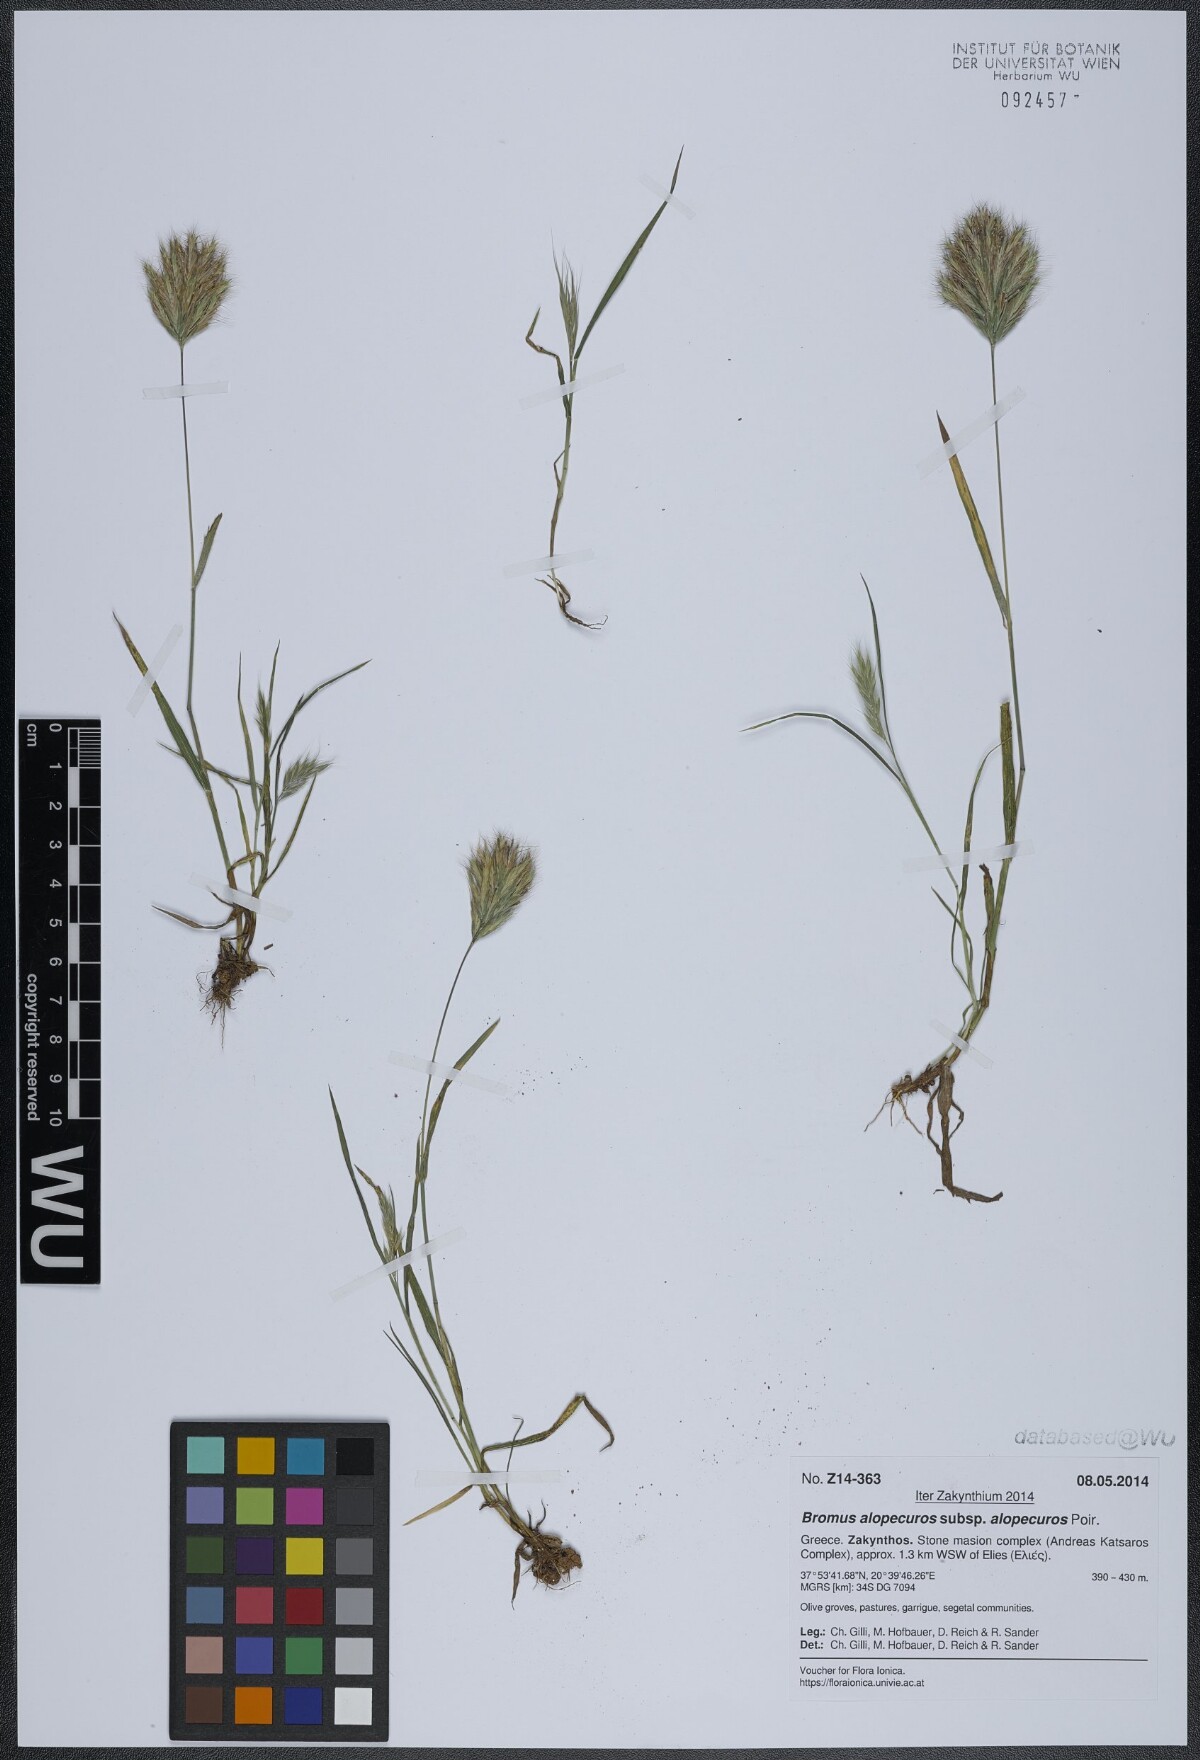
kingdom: Plantae
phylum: Tracheophyta
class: Liliopsida
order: Poales
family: Poaceae
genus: Bromus
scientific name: Bromus alopecuros
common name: Weedy brome
